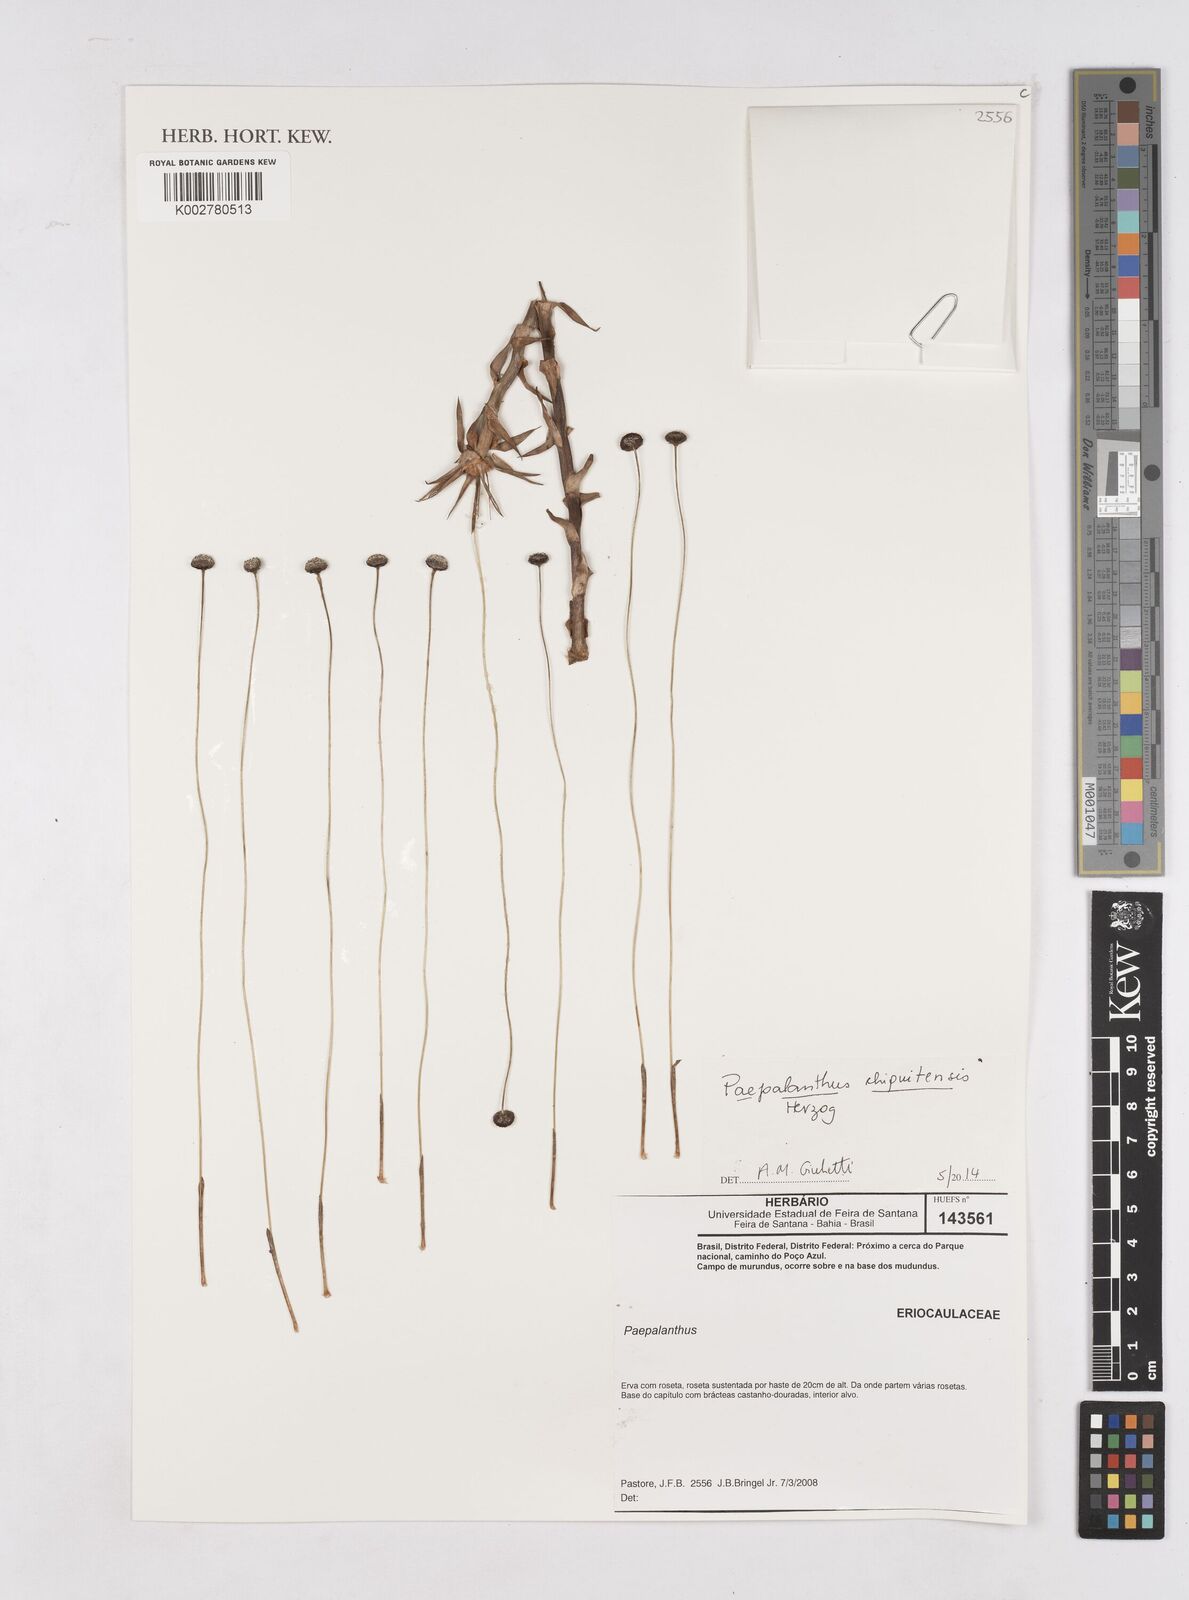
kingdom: Plantae
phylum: Tracheophyta
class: Liliopsida
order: Poales
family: Eriocaulaceae
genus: Paepalanthus
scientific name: Paepalanthus chiquitensis
